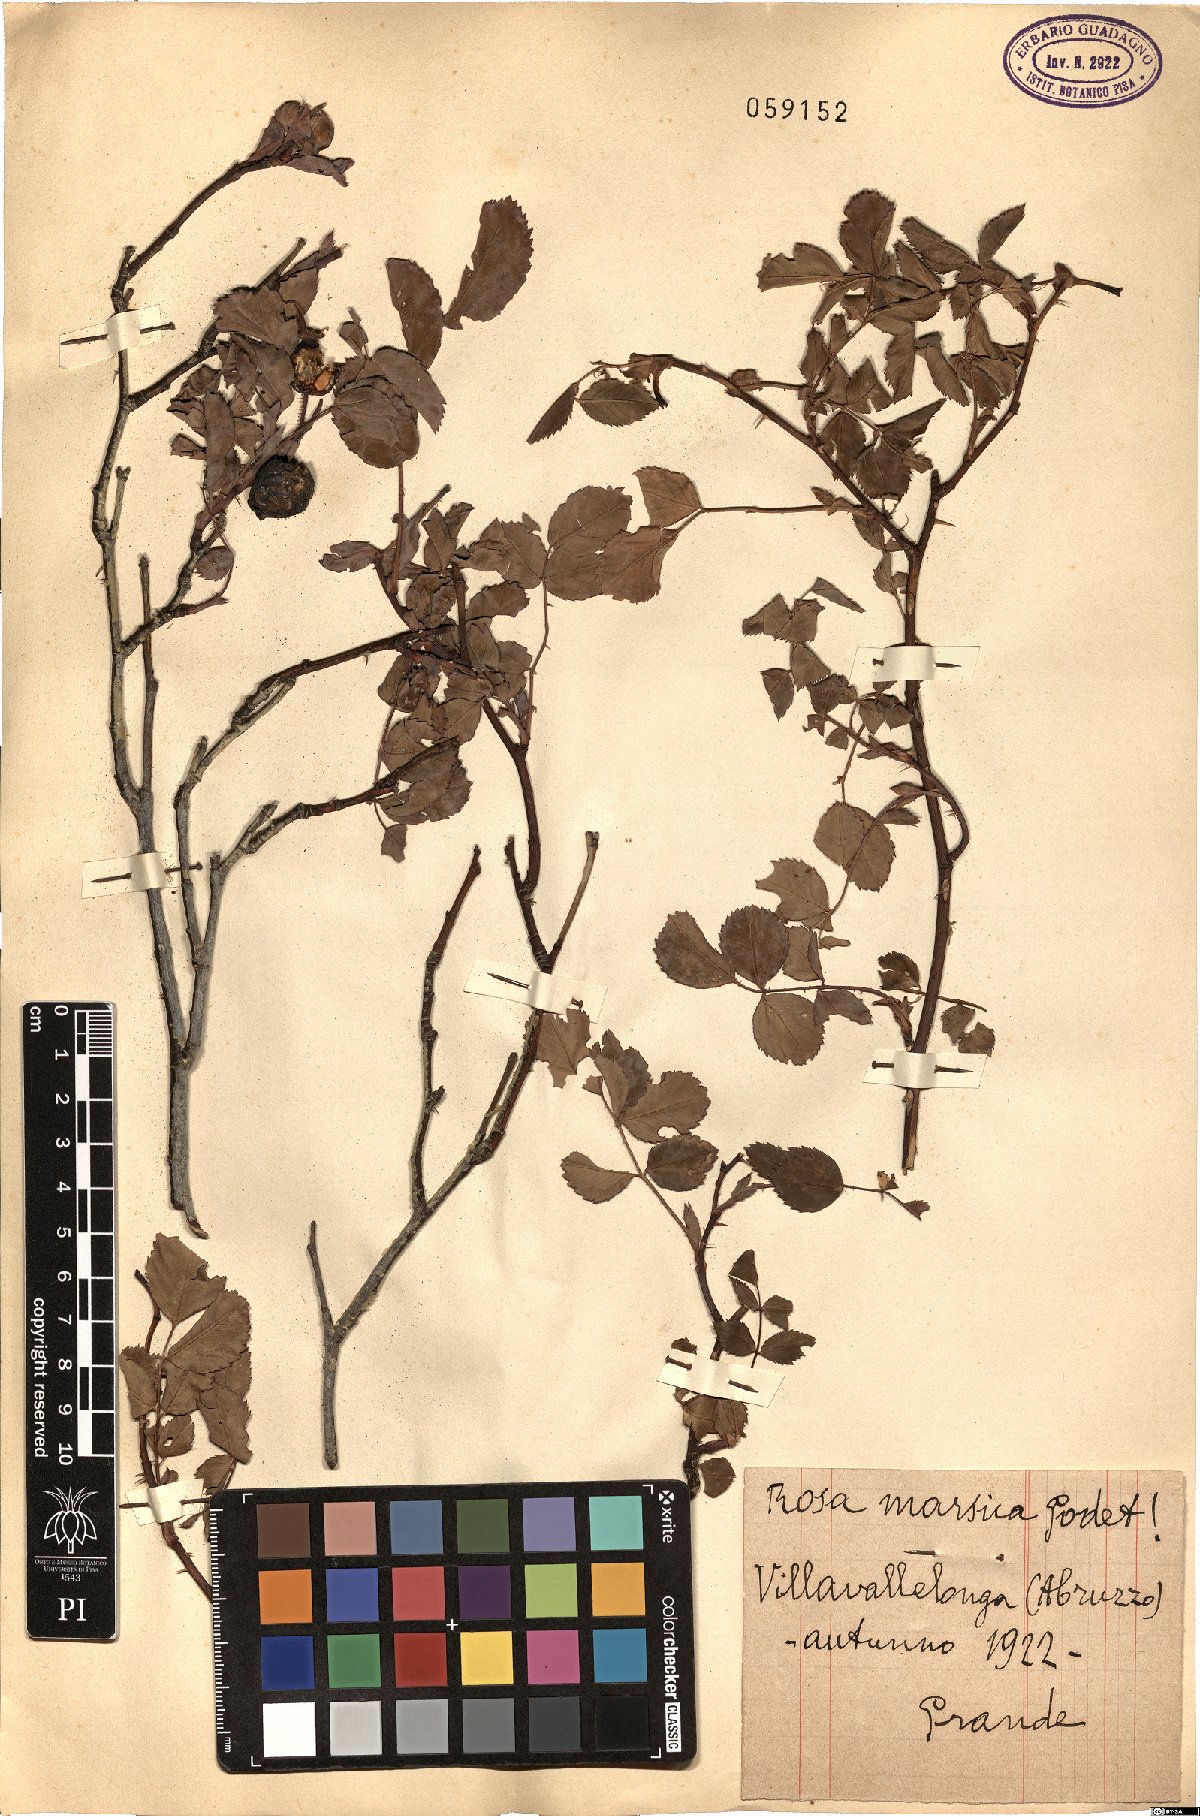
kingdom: Plantae
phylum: Tracheophyta
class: Magnoliopsida
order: Rosales
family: Rosaceae
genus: Rosa
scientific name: Rosa
